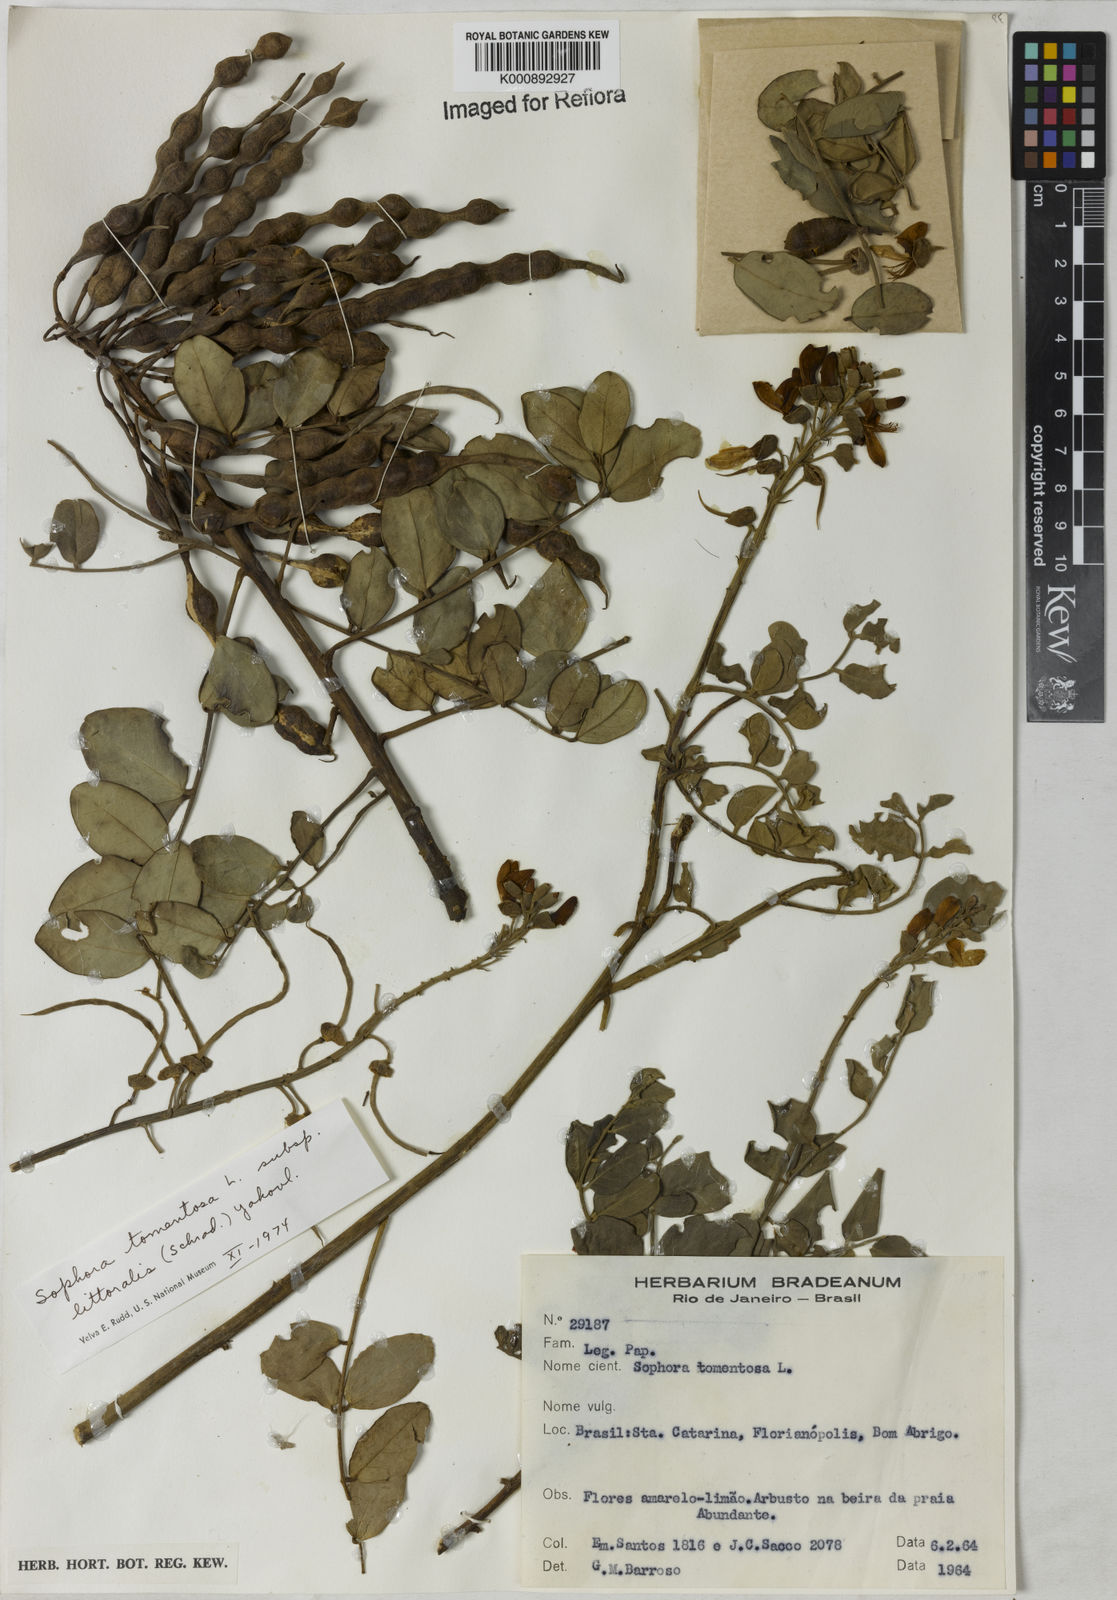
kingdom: Plantae
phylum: Tracheophyta
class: Magnoliopsida
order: Fabales
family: Fabaceae
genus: Sophora
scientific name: Sophora tomentosa
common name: Yellow necklacepod
